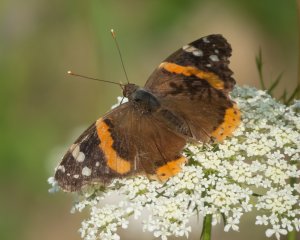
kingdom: Animalia
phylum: Arthropoda
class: Insecta
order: Lepidoptera
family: Nymphalidae
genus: Vanessa
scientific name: Vanessa atalanta
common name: Red Admiral
